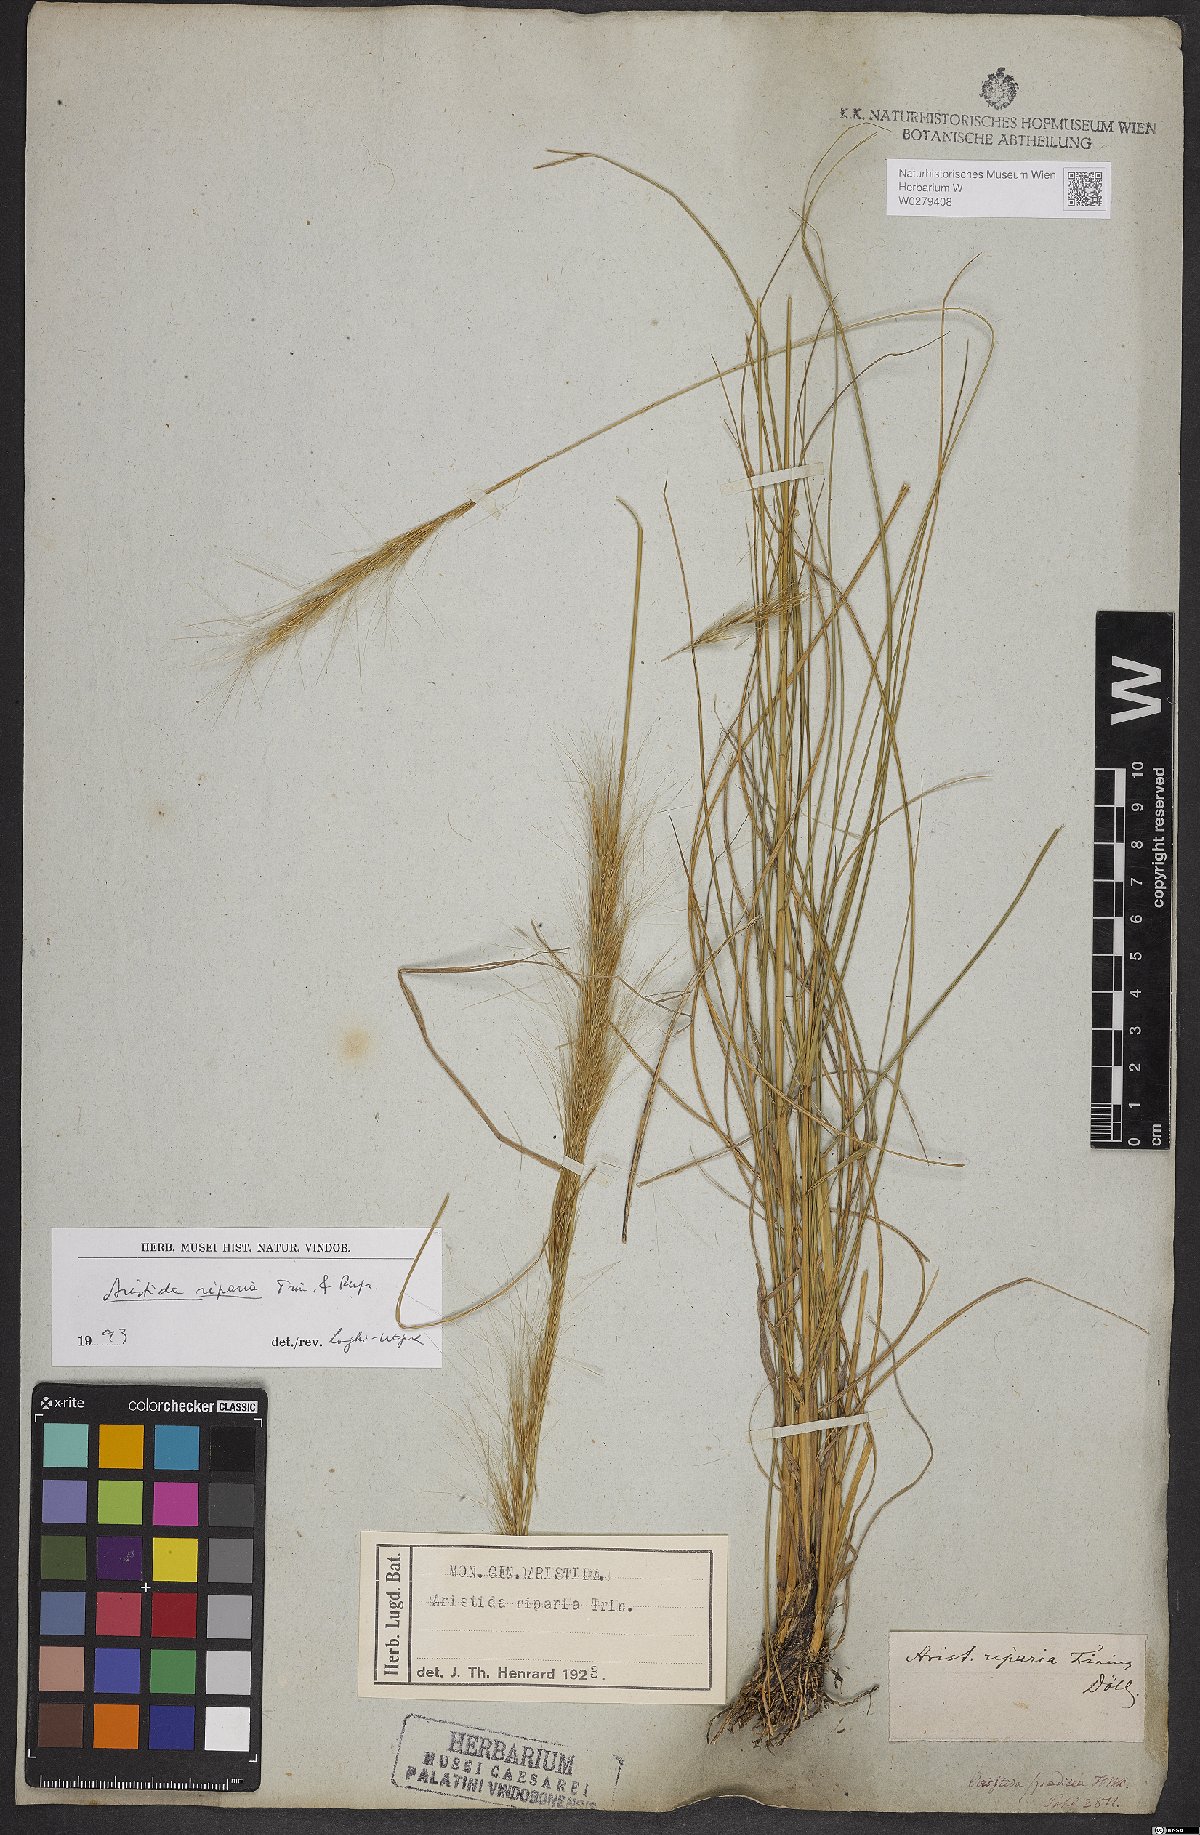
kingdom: Plantae
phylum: Tracheophyta
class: Liliopsida
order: Poales
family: Poaceae
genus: Aristida
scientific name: Aristida riparia
